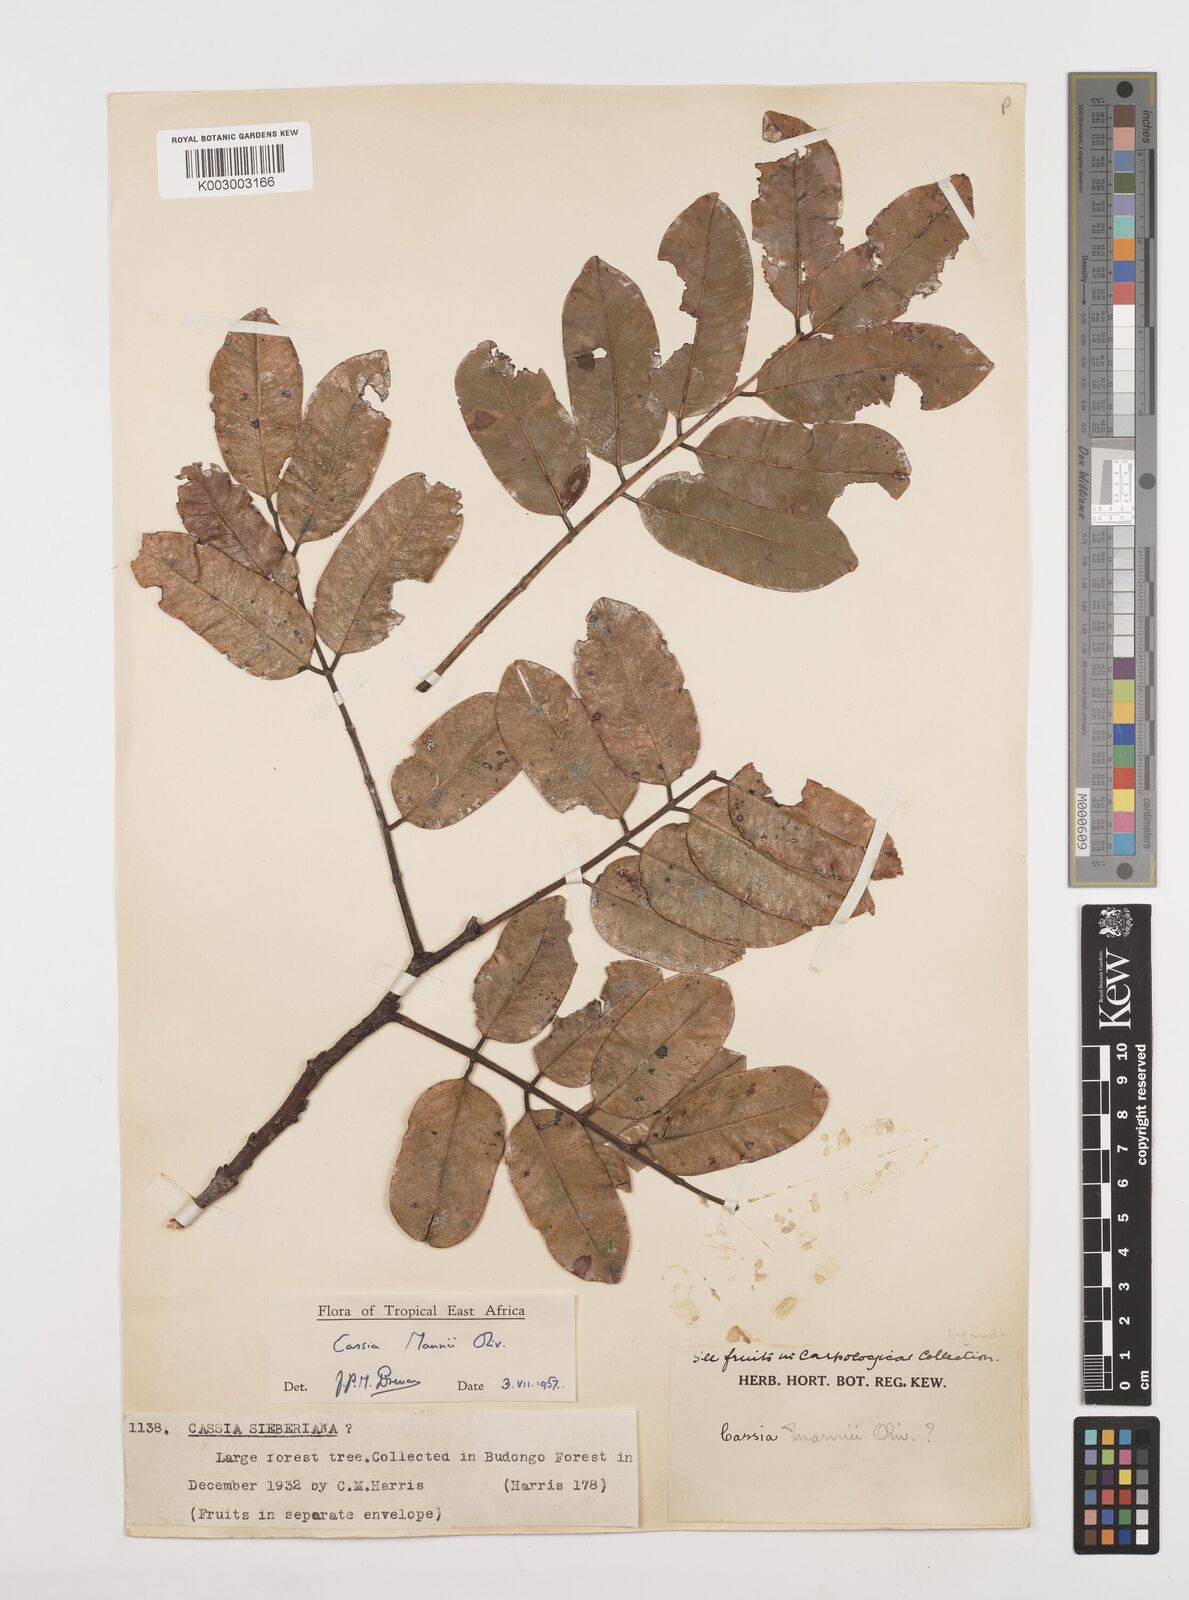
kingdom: Plantae
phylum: Tracheophyta
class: Magnoliopsida
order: Fabales
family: Fabaceae
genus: Cassia
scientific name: Cassia mannii
